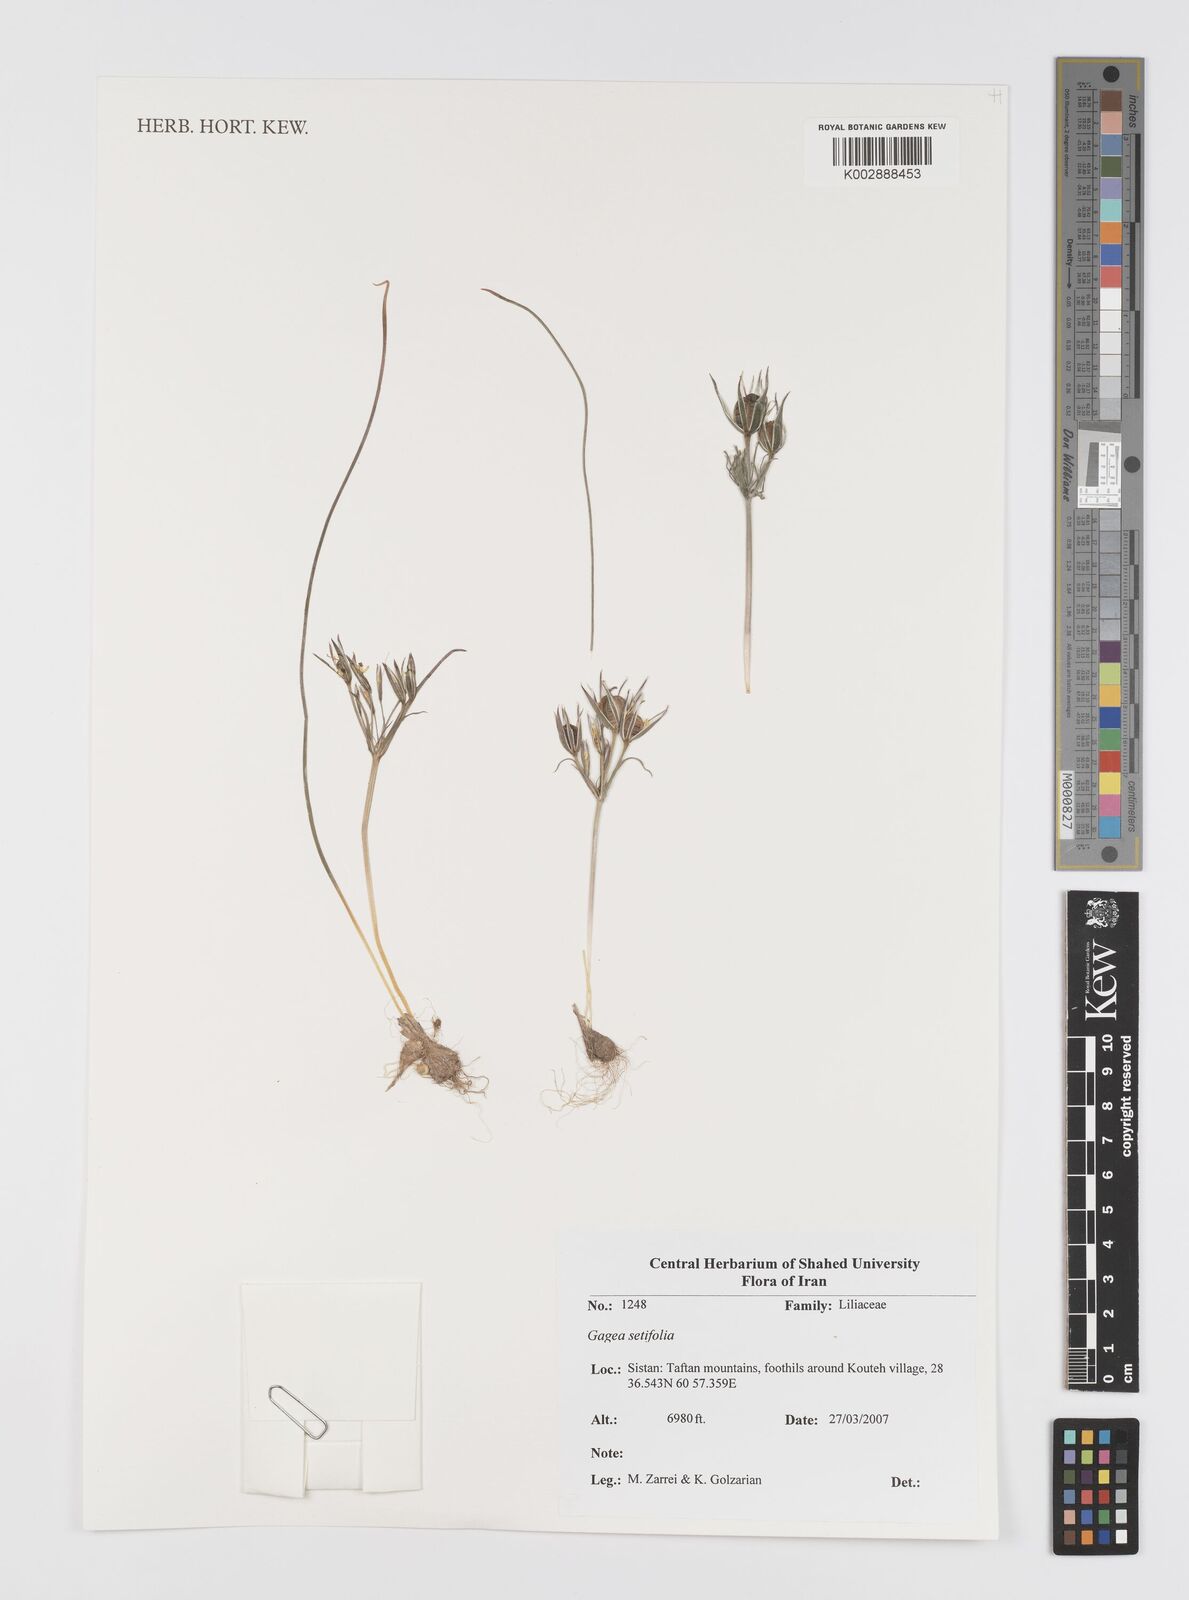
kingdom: Plantae
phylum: Tracheophyta
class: Liliopsida
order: Liliales
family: Liliaceae
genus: Gagea
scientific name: Gagea setifolia
